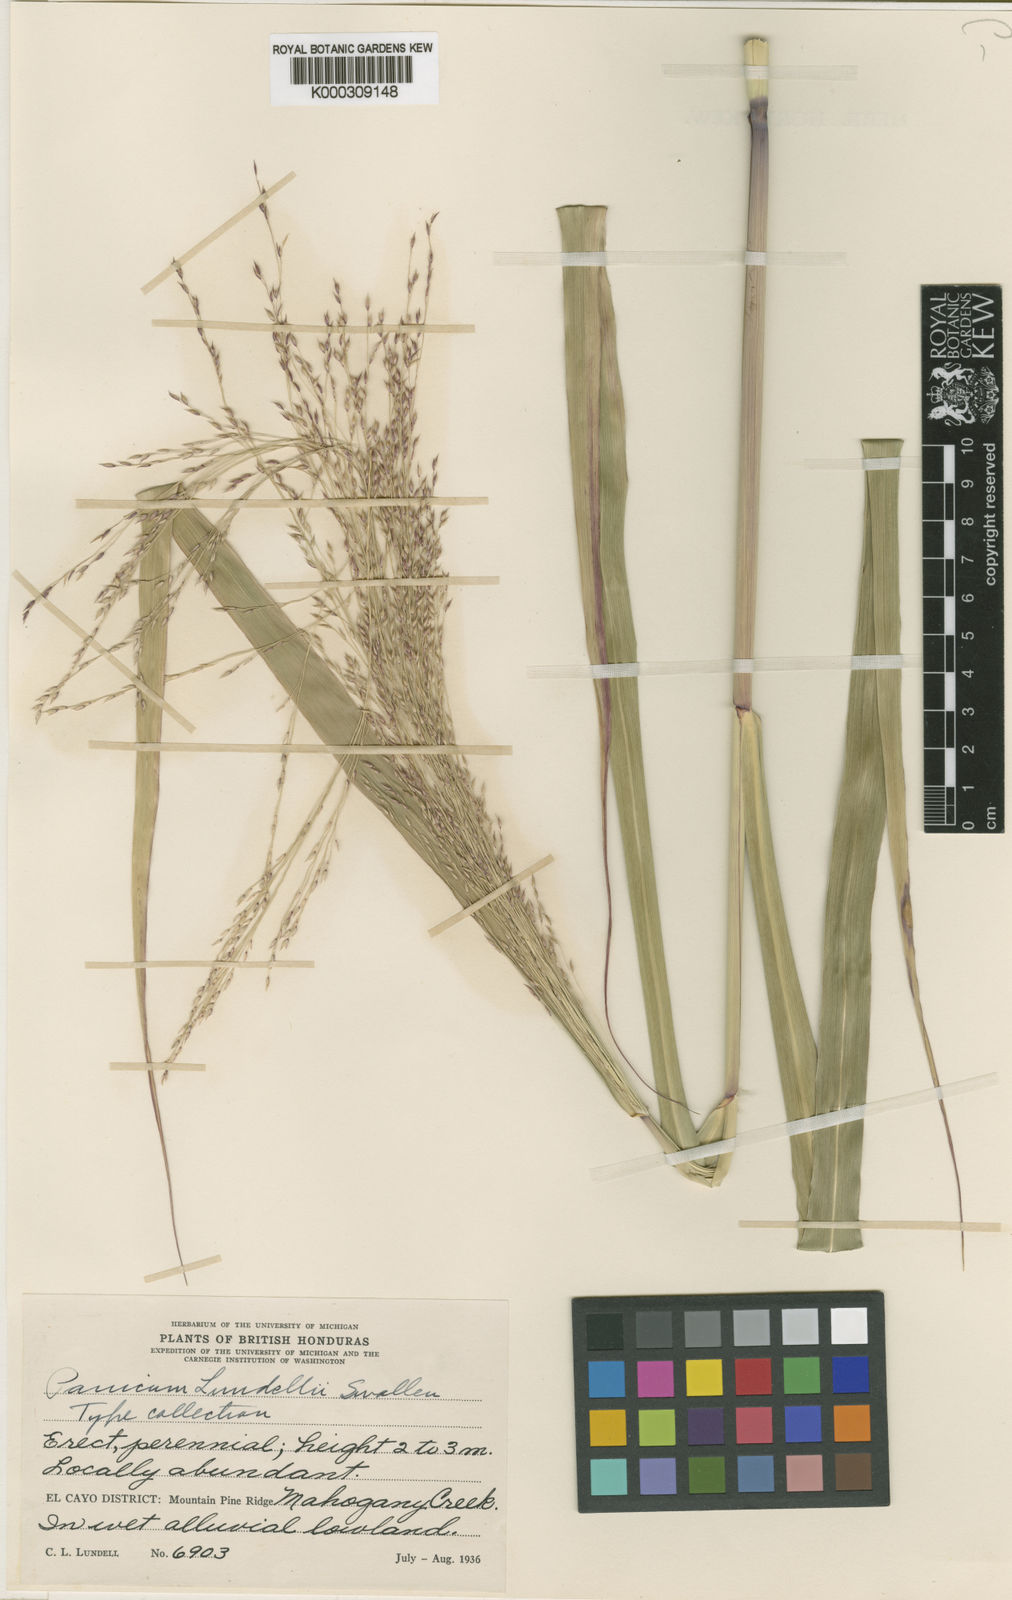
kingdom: Plantae
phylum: Tracheophyta
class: Liliopsida
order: Poales
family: Poaceae
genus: Panicum
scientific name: Panicum altum
